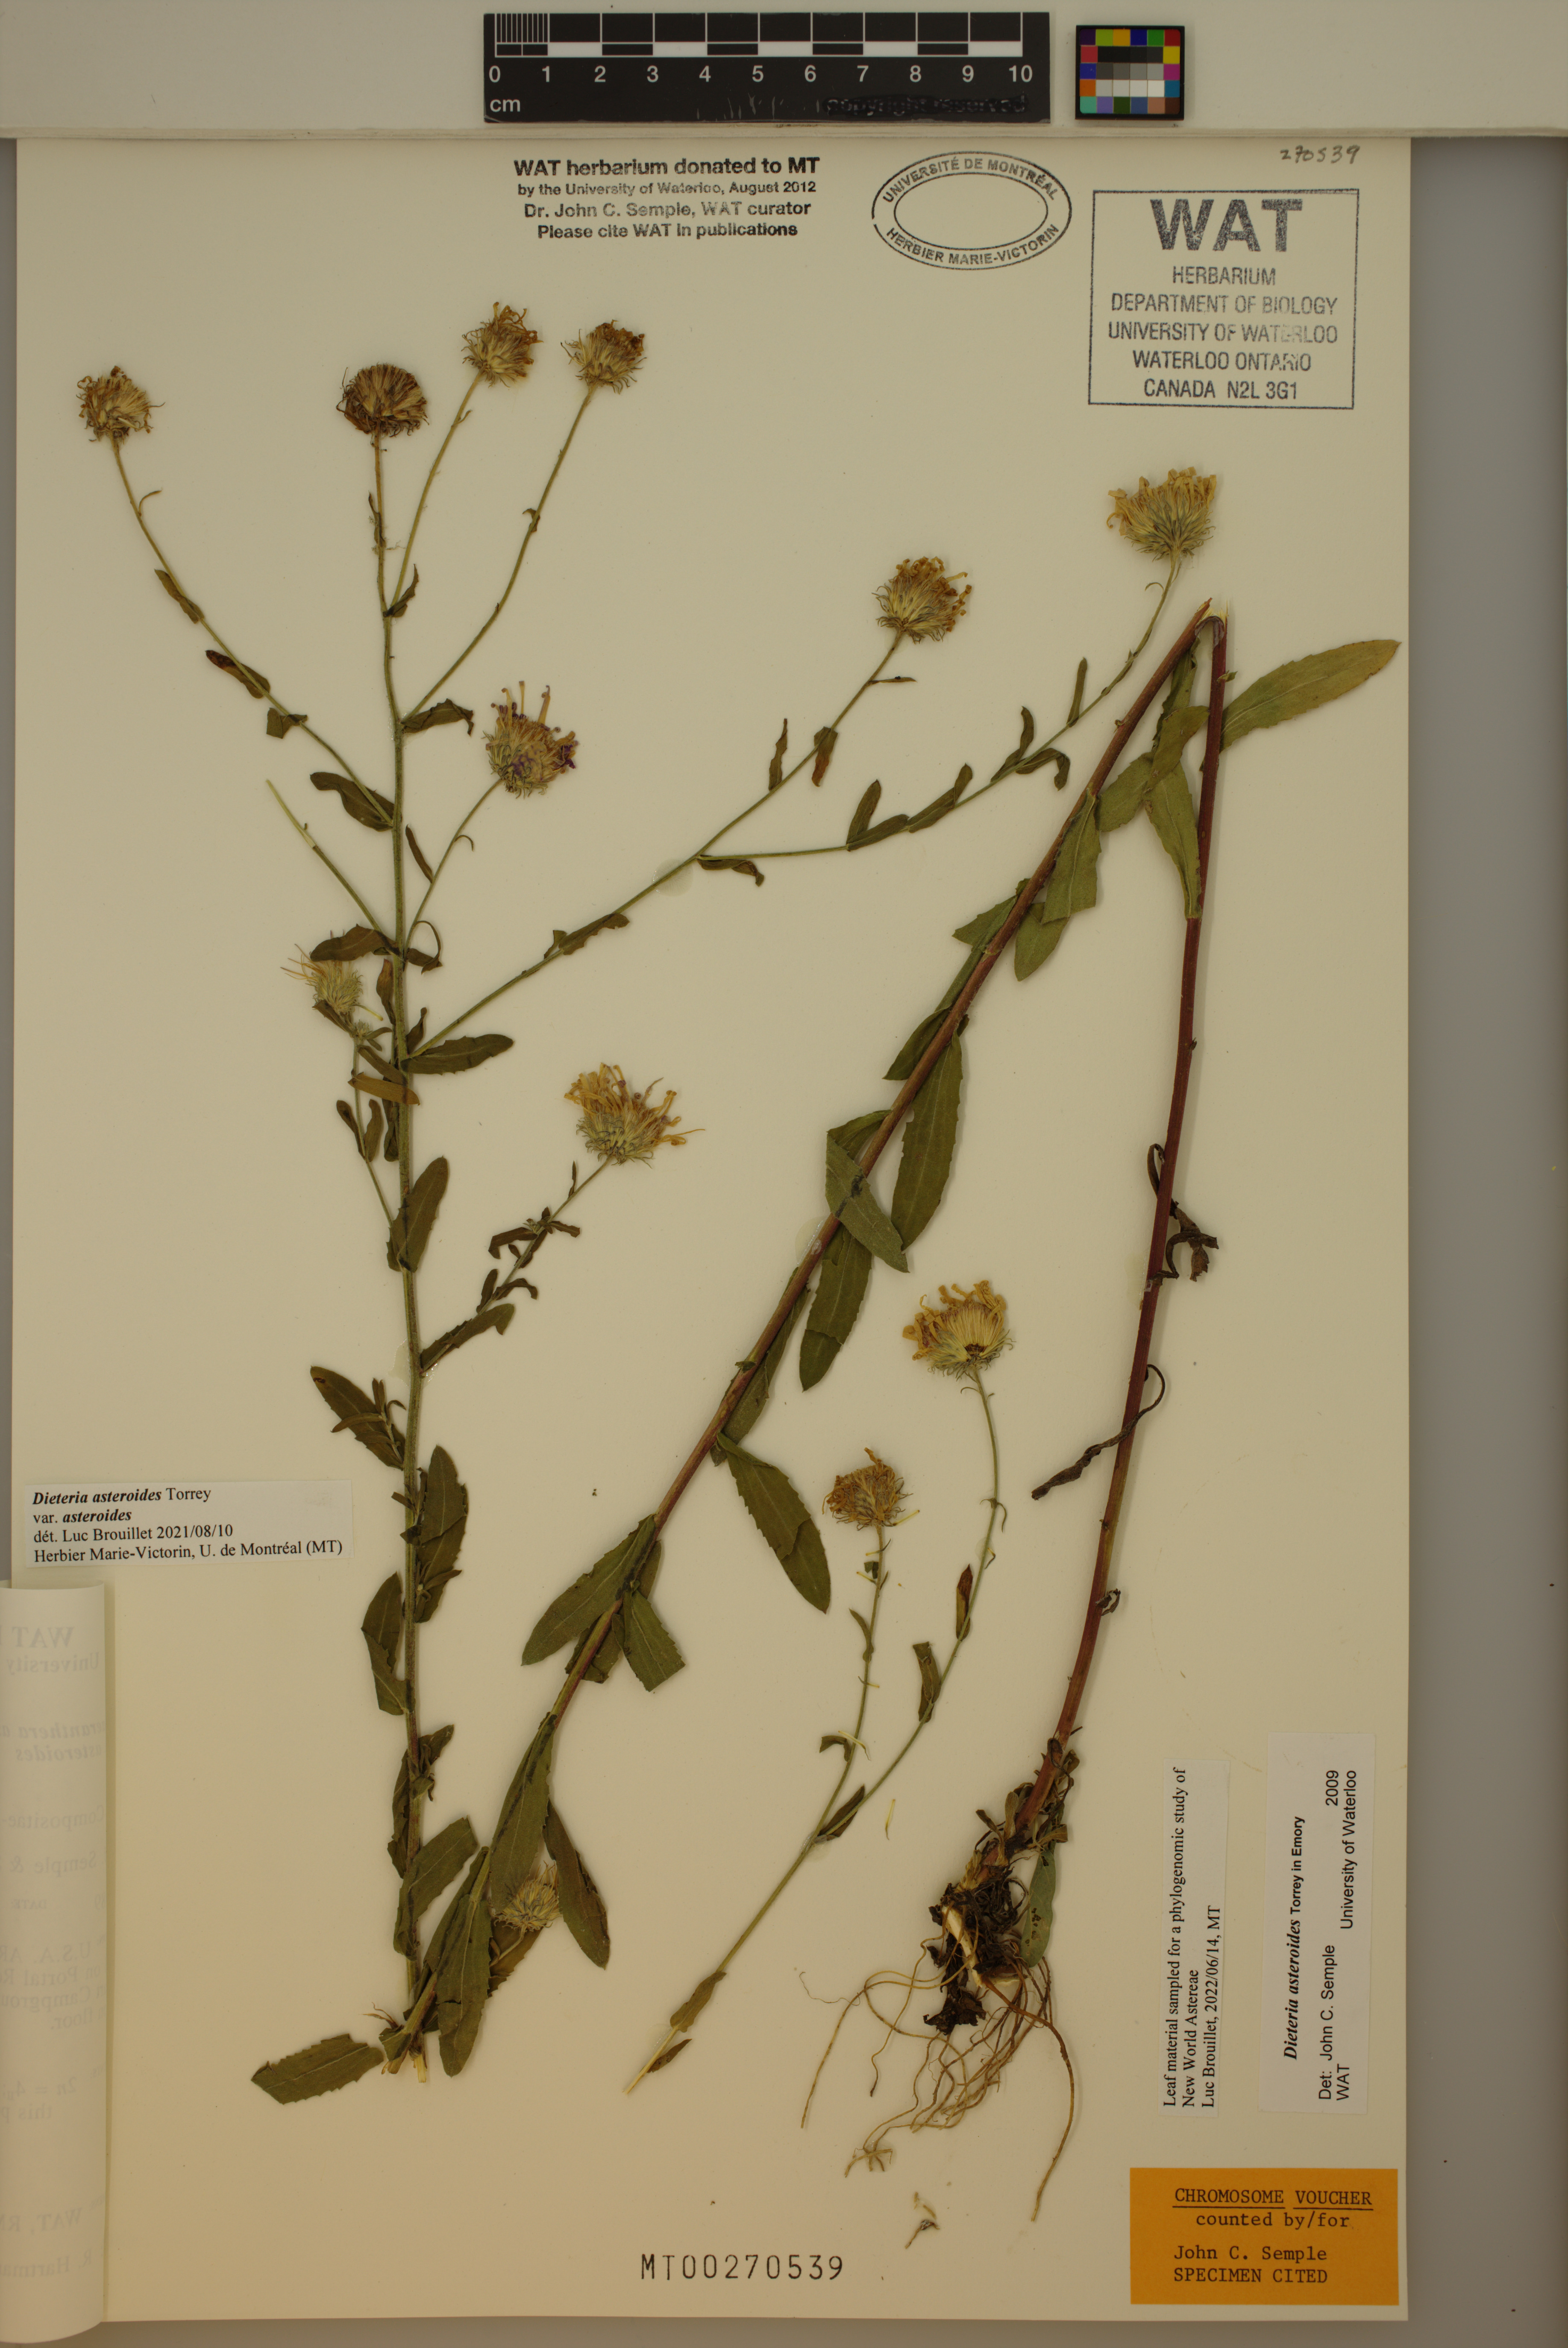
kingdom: Plantae
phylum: Tracheophyta
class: Magnoliopsida
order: Asterales
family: Asteraceae
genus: Dieteria
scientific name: Dieteria asteroides
